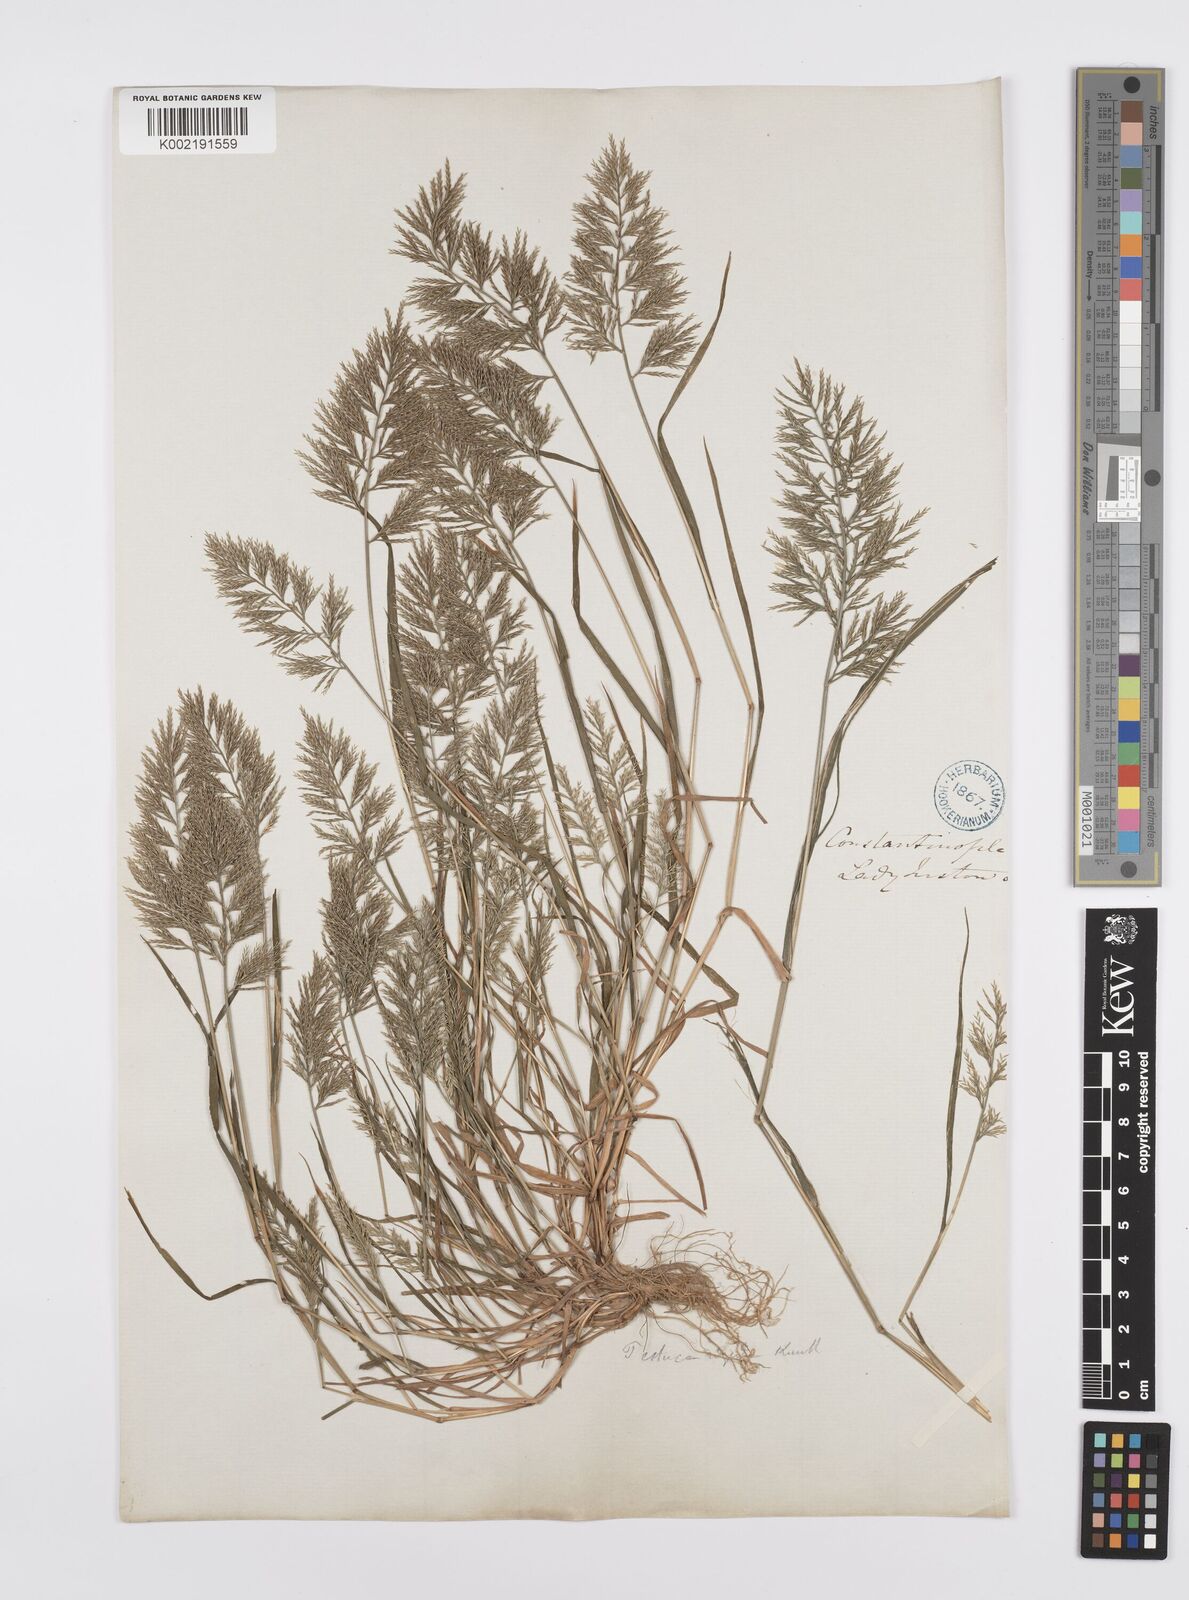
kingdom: Plantae
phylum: Tracheophyta
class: Liliopsida
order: Poales
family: Poaceae
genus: Catapodium
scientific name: Catapodium rigidum
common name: Fern-grass
